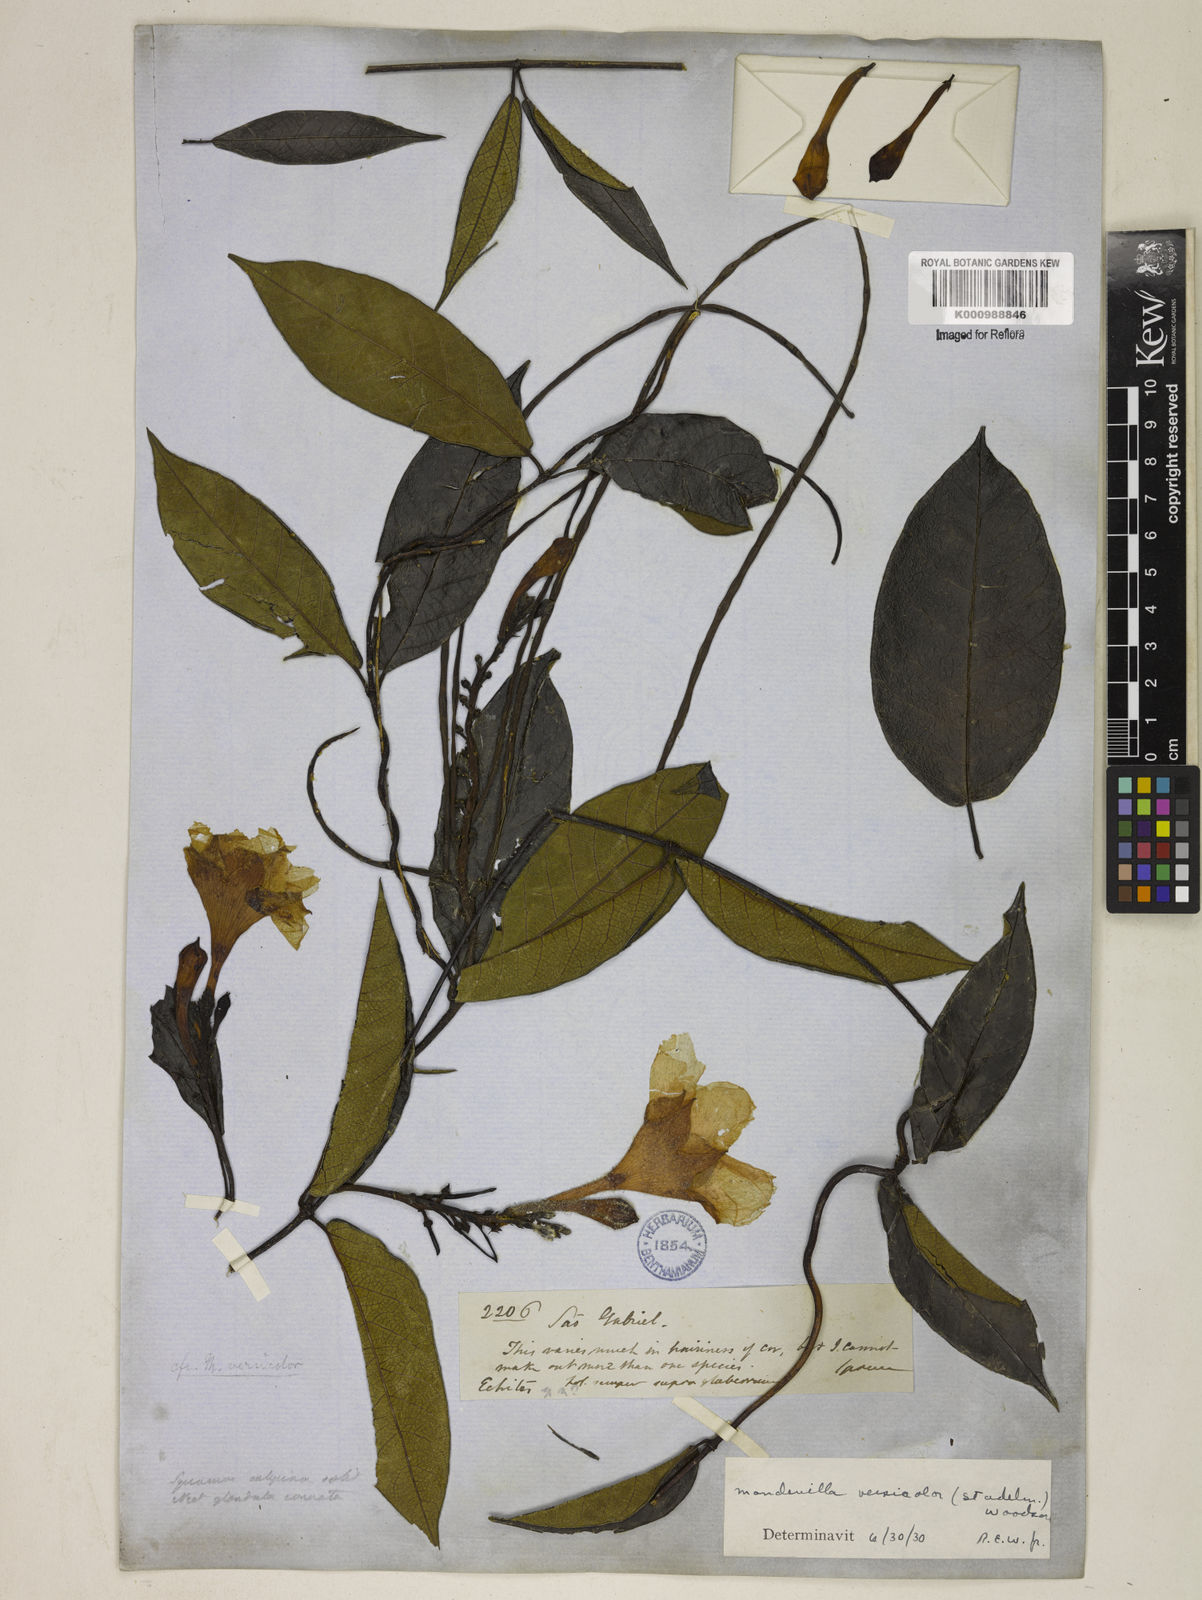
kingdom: Plantae
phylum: Tracheophyta
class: Magnoliopsida
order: Gentianales
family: Apocynaceae
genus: Mandevilla
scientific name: Mandevilla scabra
